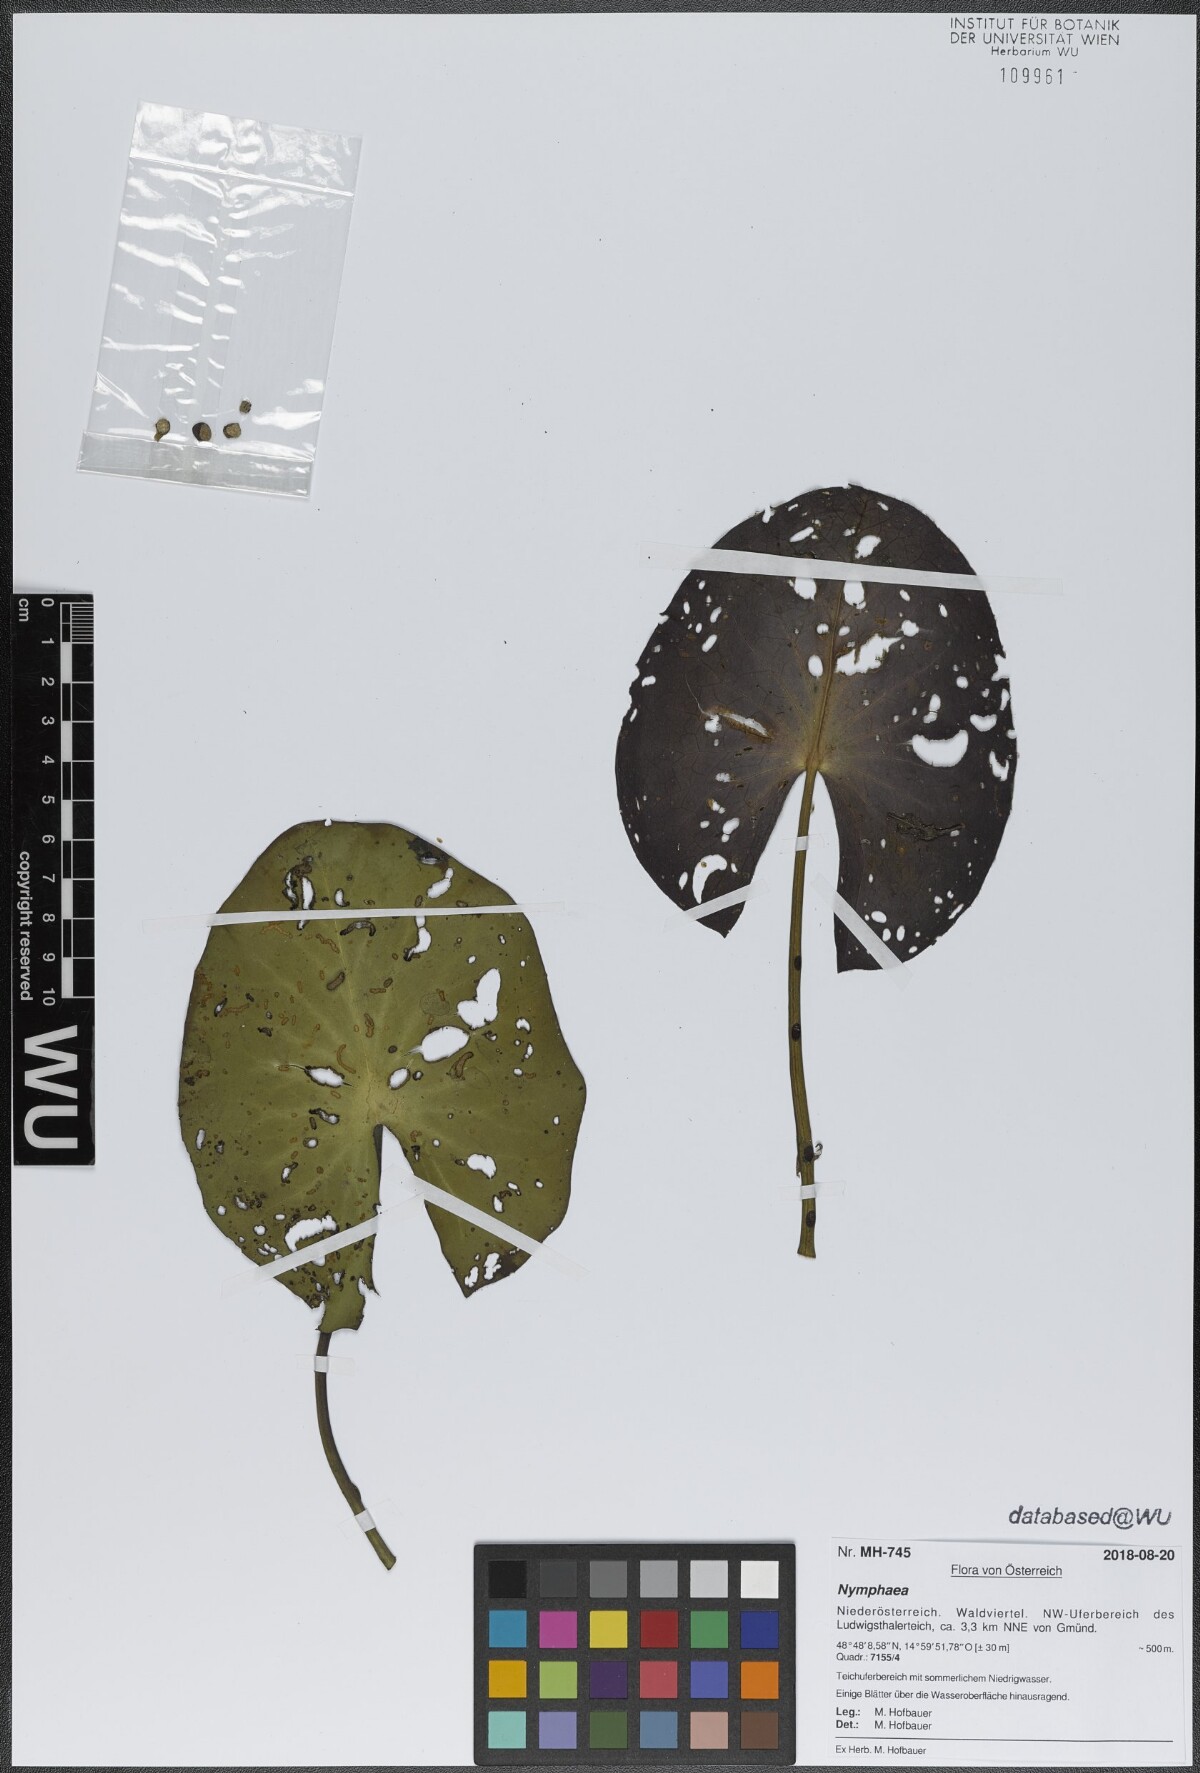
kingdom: Plantae
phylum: Tracheophyta
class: Magnoliopsida
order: Nymphaeales
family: Nymphaeaceae
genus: Nymphaea
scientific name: Nymphaea
